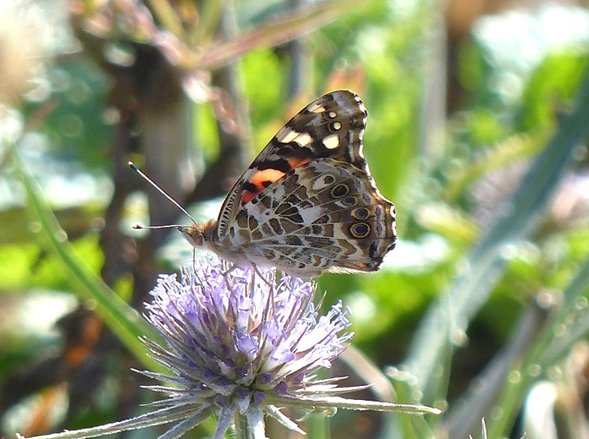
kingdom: Animalia
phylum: Arthropoda
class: Insecta
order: Lepidoptera
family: Nymphalidae
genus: Vanessa
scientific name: Vanessa cardui
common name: Painted Lady
